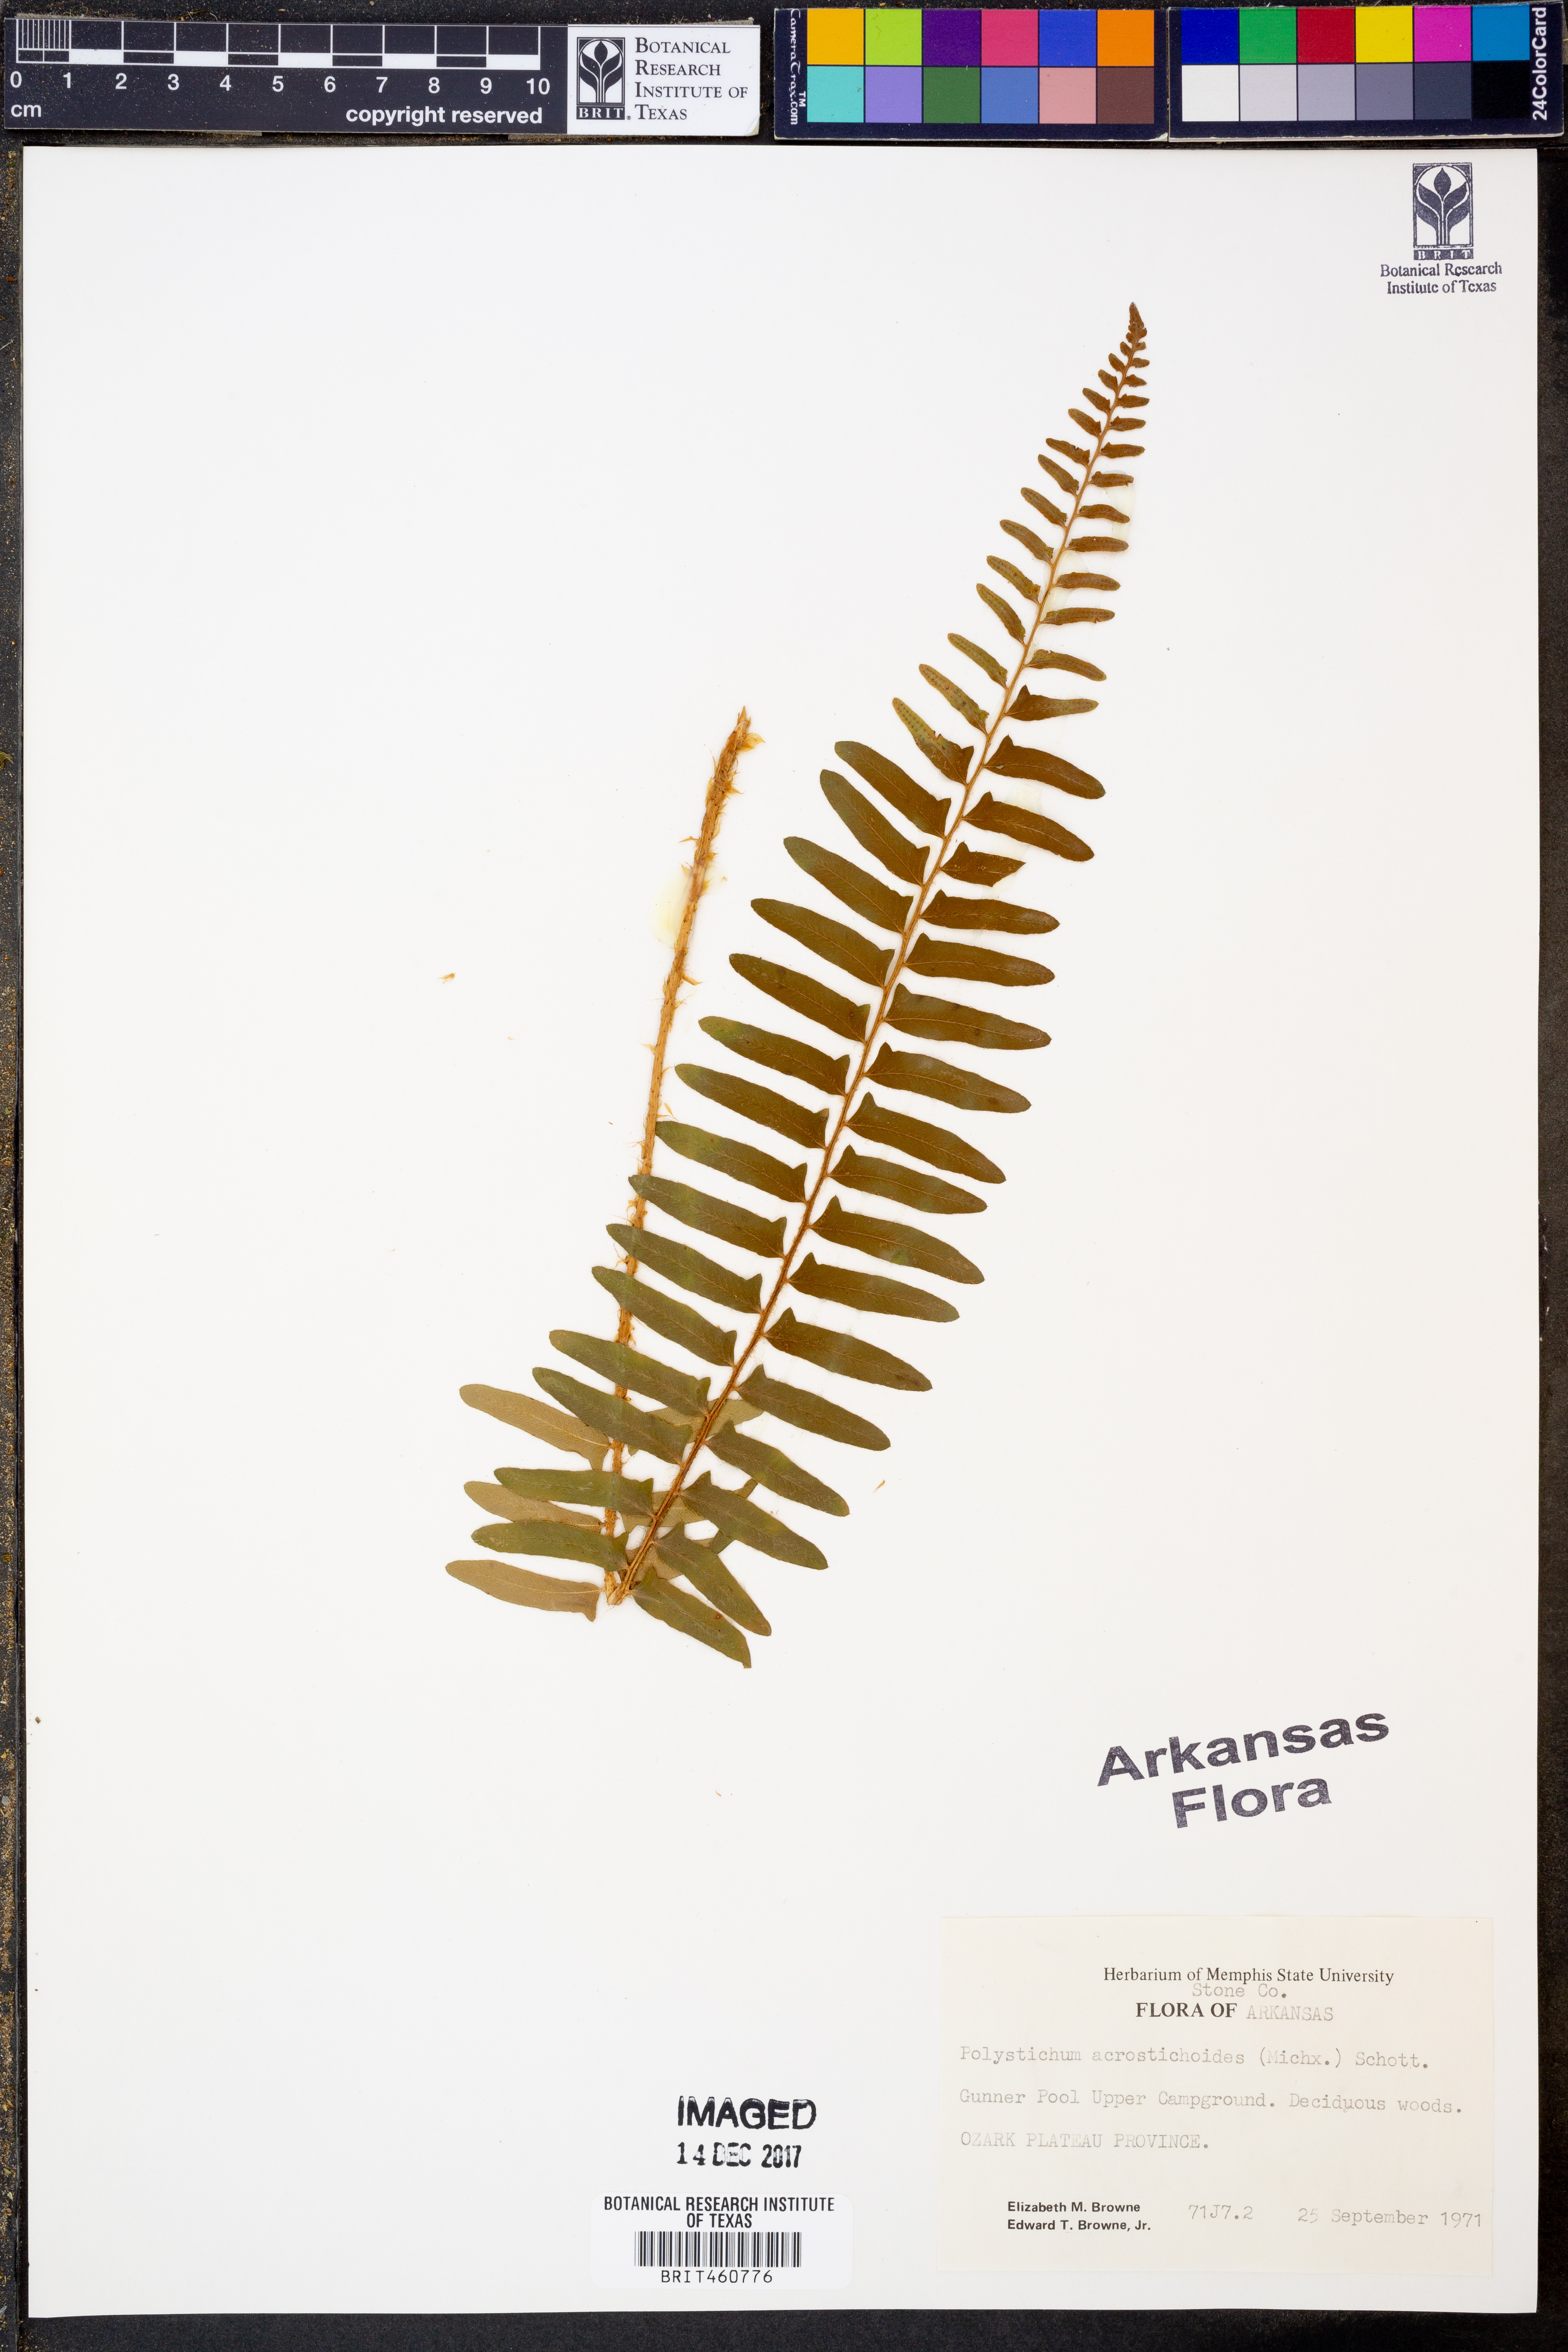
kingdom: Plantae
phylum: Tracheophyta
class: Polypodiopsida
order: Polypodiales
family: Dryopteridaceae
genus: Polystichum
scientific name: Polystichum acrostichoides
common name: Christmas fern
